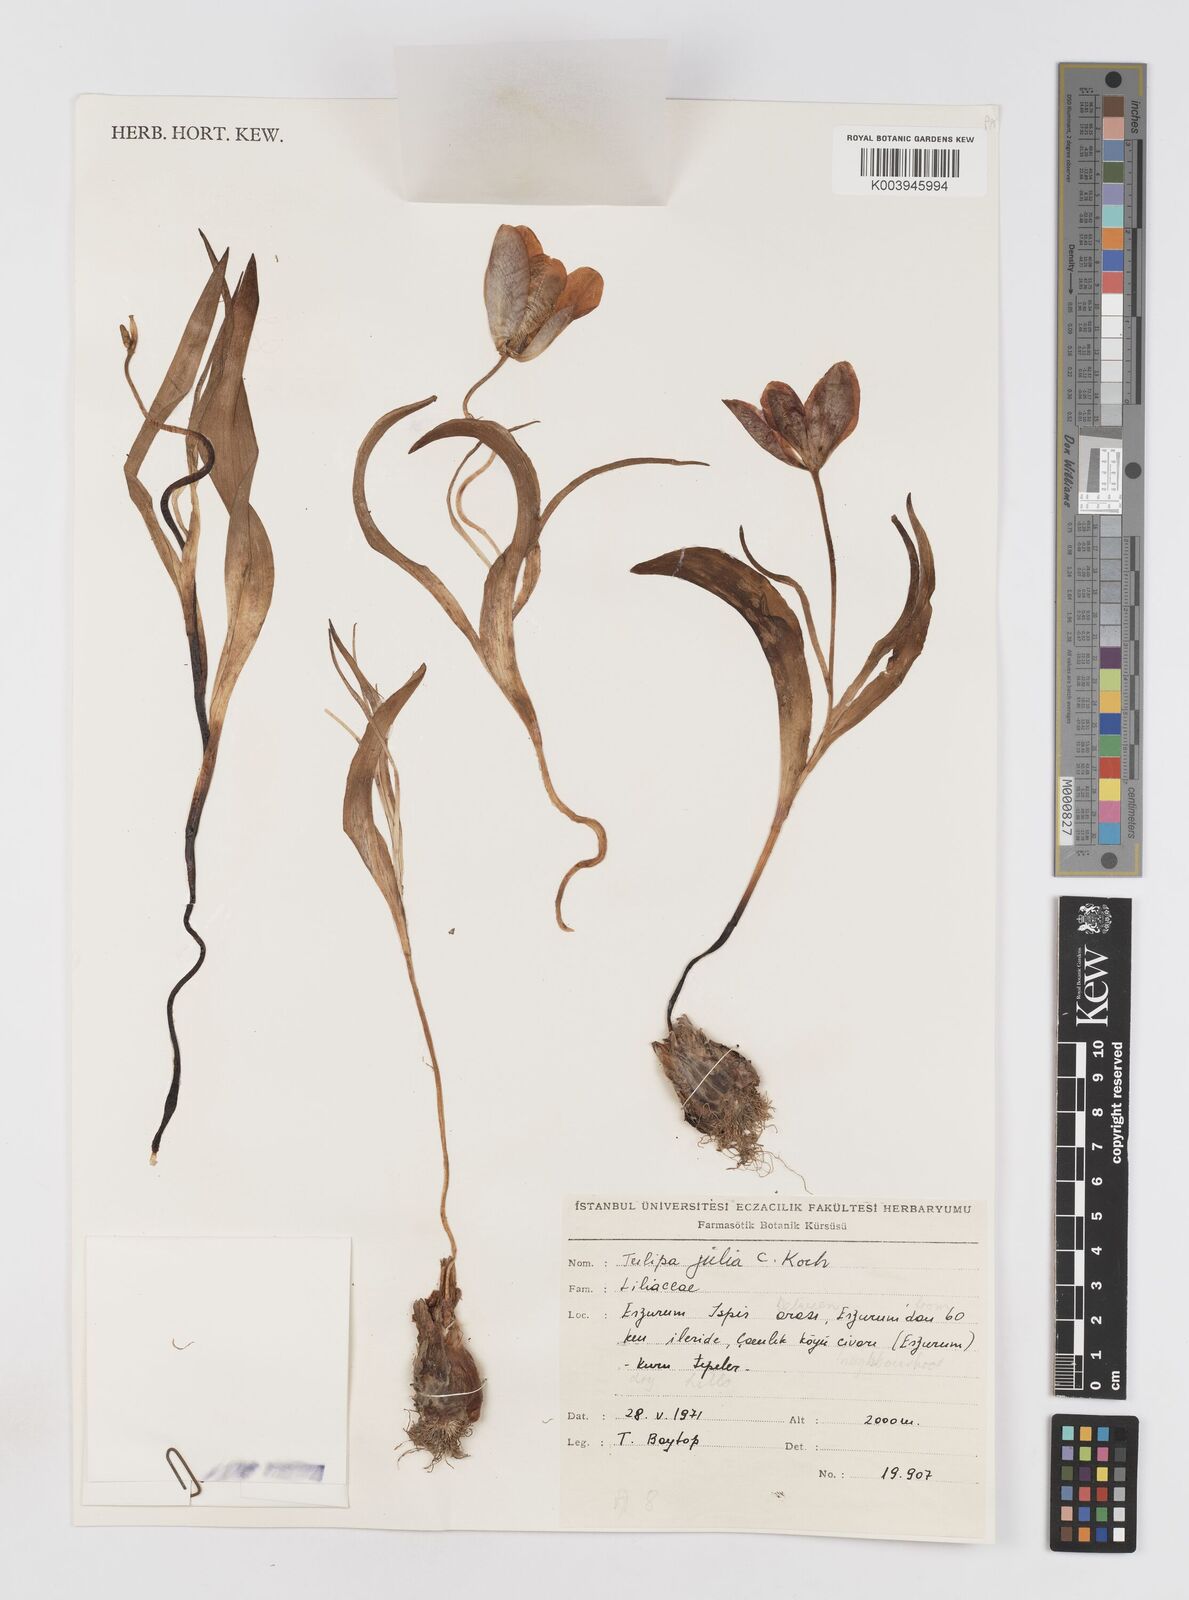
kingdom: Plantae
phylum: Tracheophyta
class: Liliopsida
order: Liliales
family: Liliaceae
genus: Tulipa
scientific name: Tulipa julia
